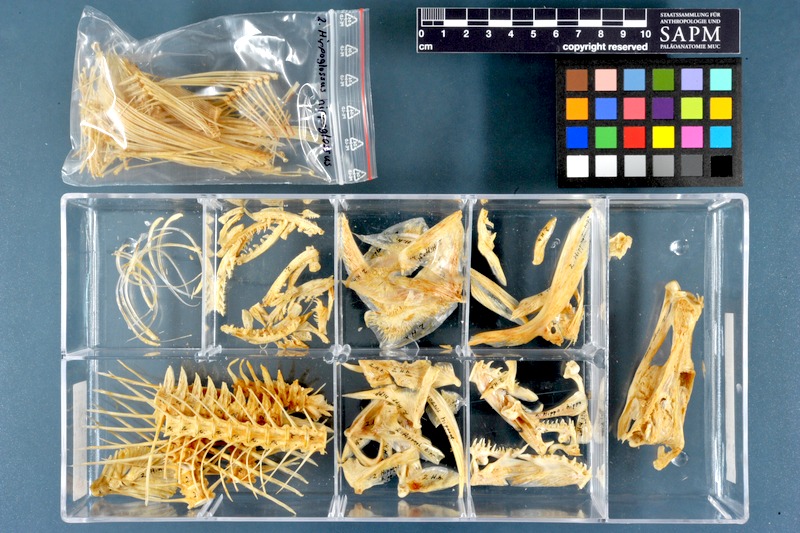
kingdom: Animalia
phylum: Chordata
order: Pleuronectiformes
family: Pleuronectidae
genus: Hippoglossus
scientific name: Hippoglossus hippoglossus
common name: Atlantic halibut
